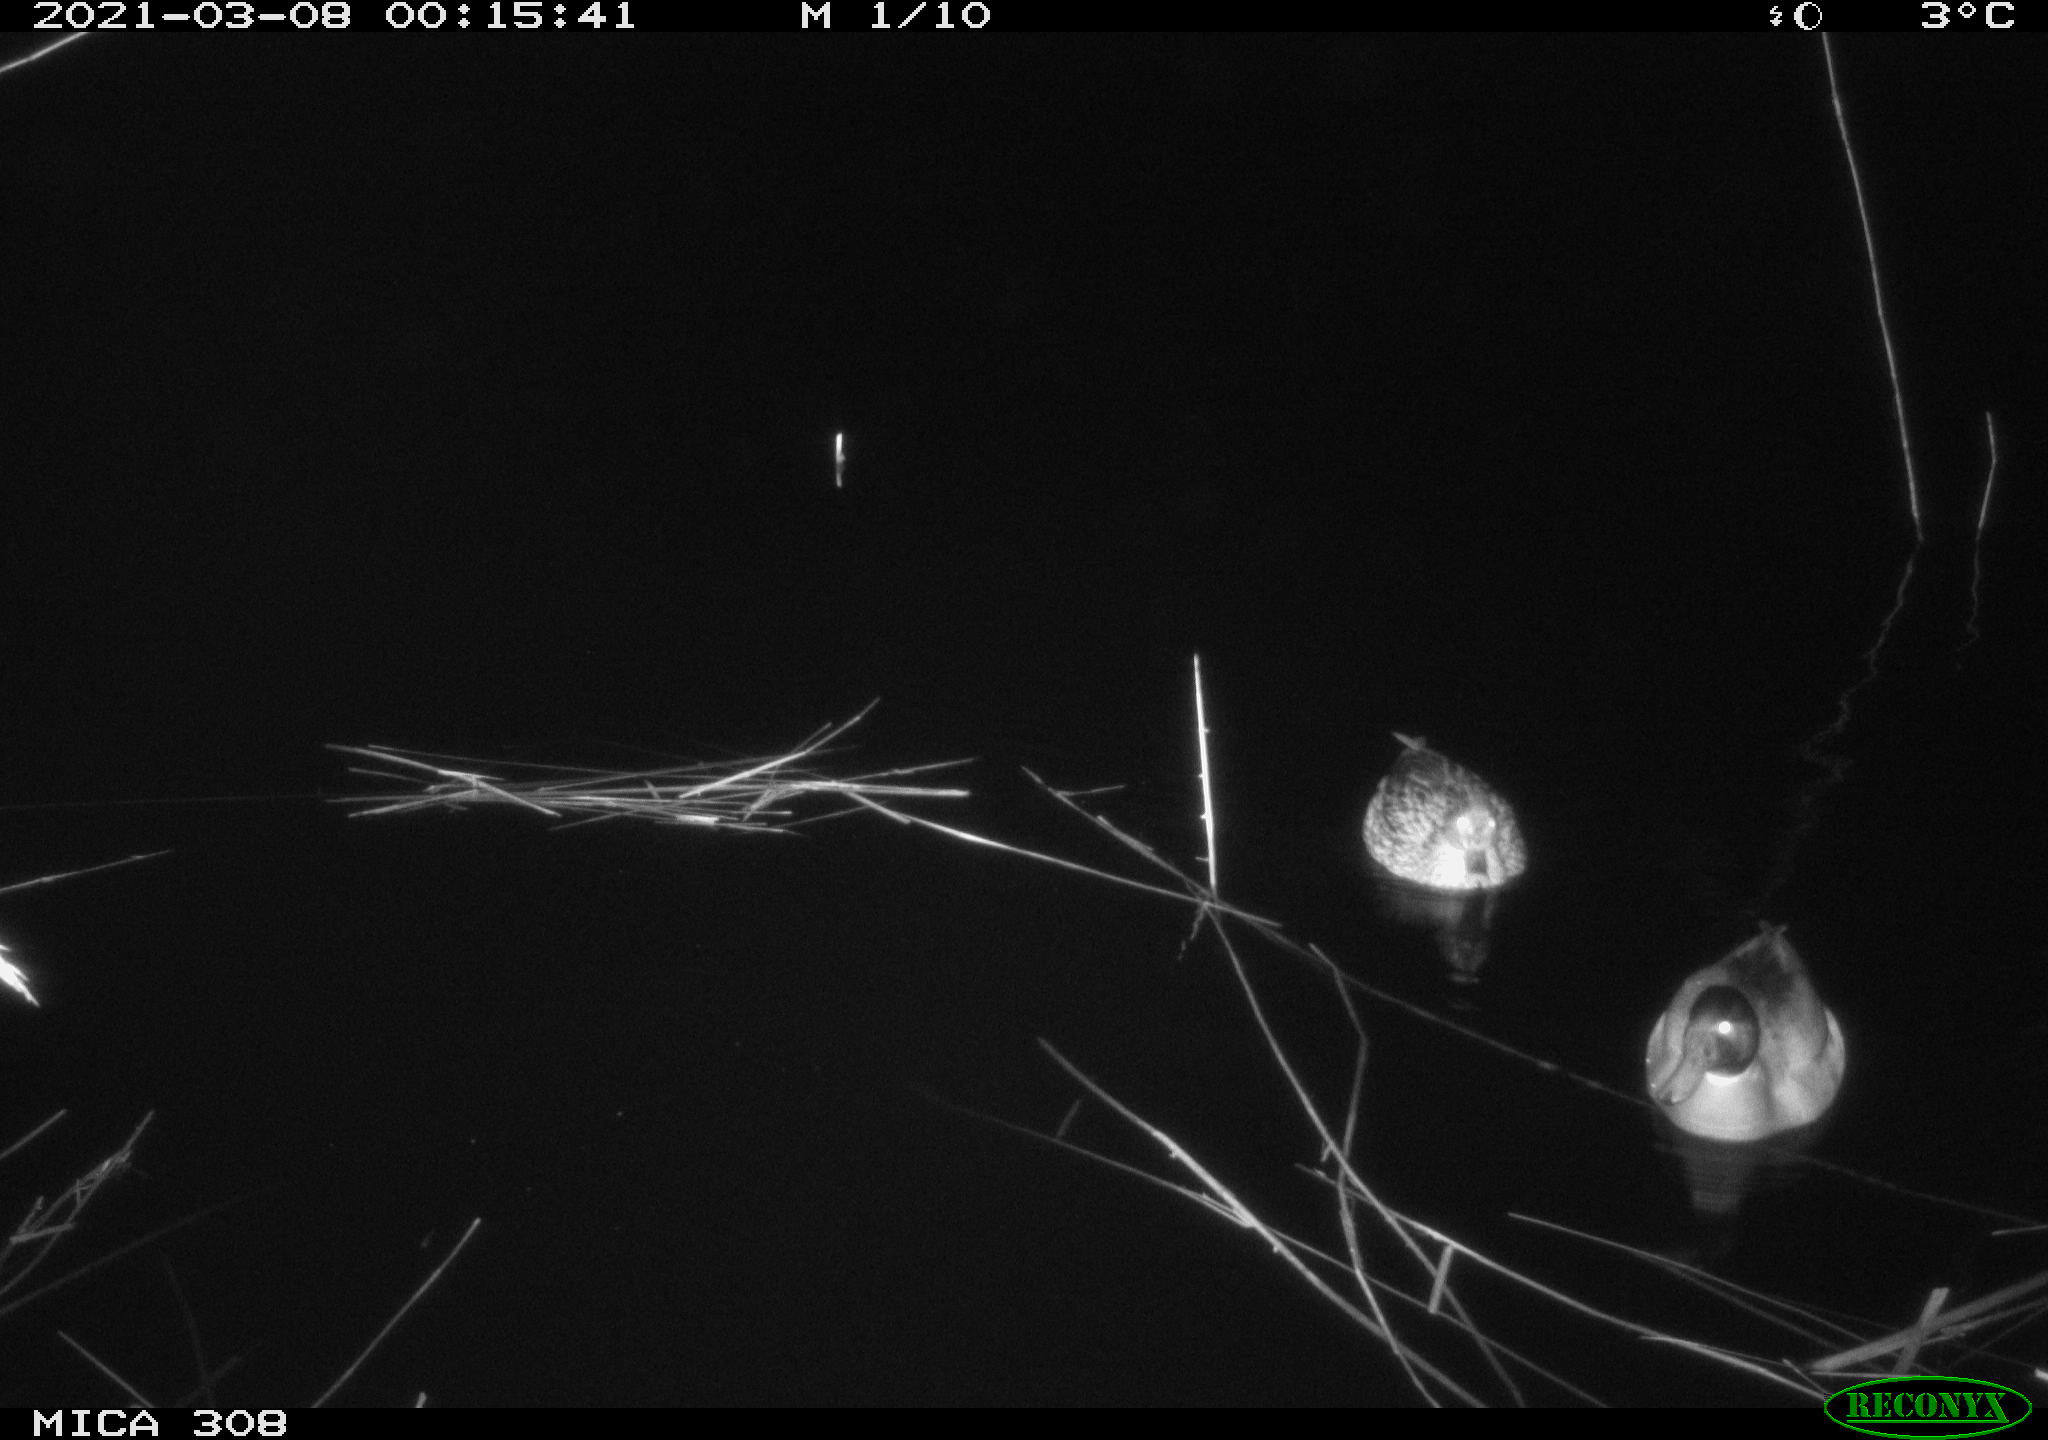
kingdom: Animalia
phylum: Chordata
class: Aves
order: Anseriformes
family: Anatidae
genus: Anas
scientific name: Anas platyrhynchos
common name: Mallard
